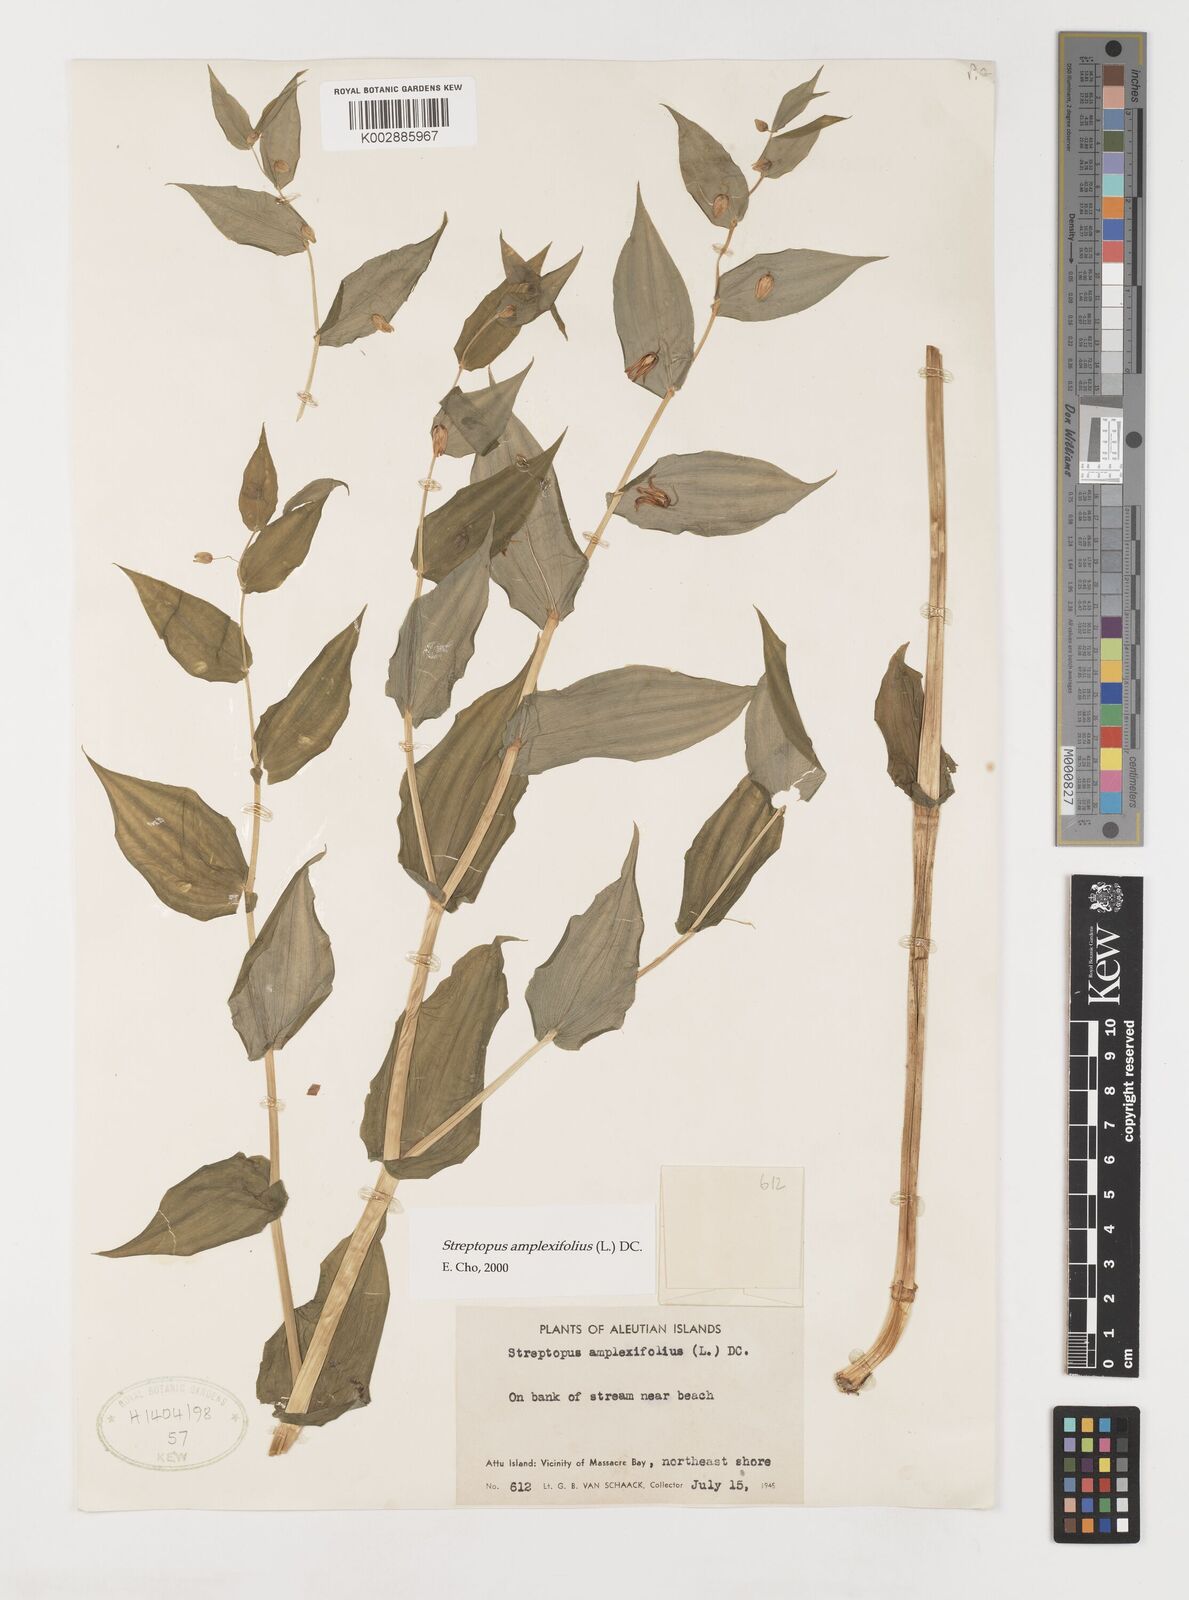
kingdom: Plantae
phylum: Tracheophyta
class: Liliopsida
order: Liliales
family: Liliaceae
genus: Streptopus
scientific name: Streptopus amplexifolius
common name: Clasp twisted stalk
